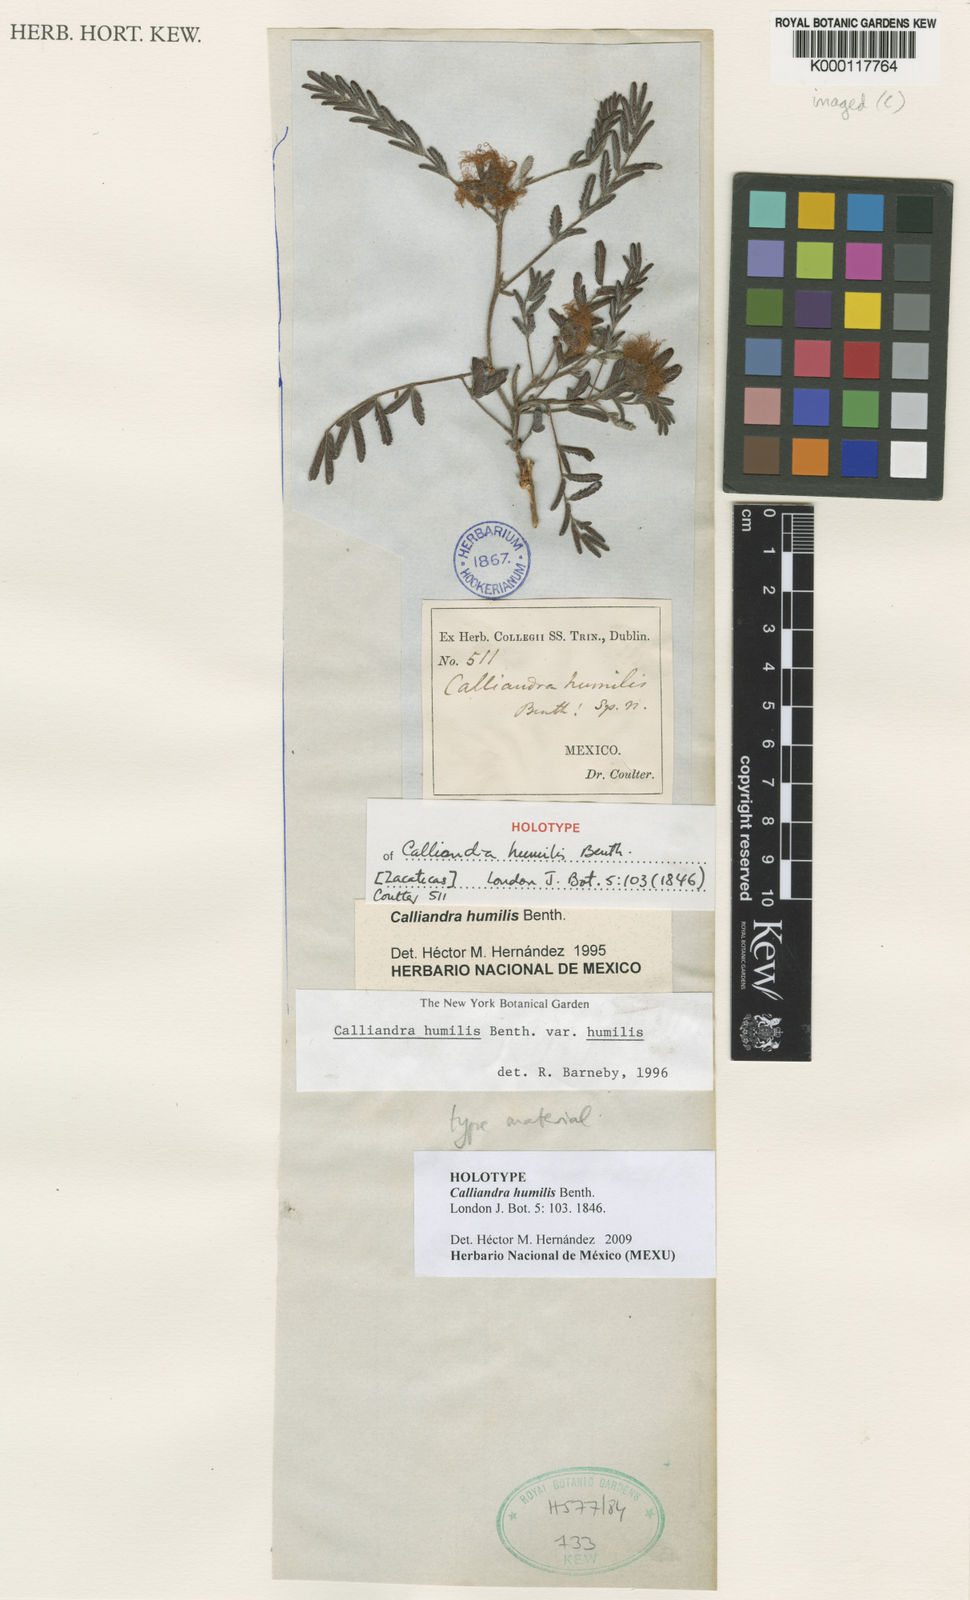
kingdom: Plantae
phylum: Tracheophyta
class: Magnoliopsida
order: Fabales
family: Fabaceae
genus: Calliandra
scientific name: Calliandra humilis
